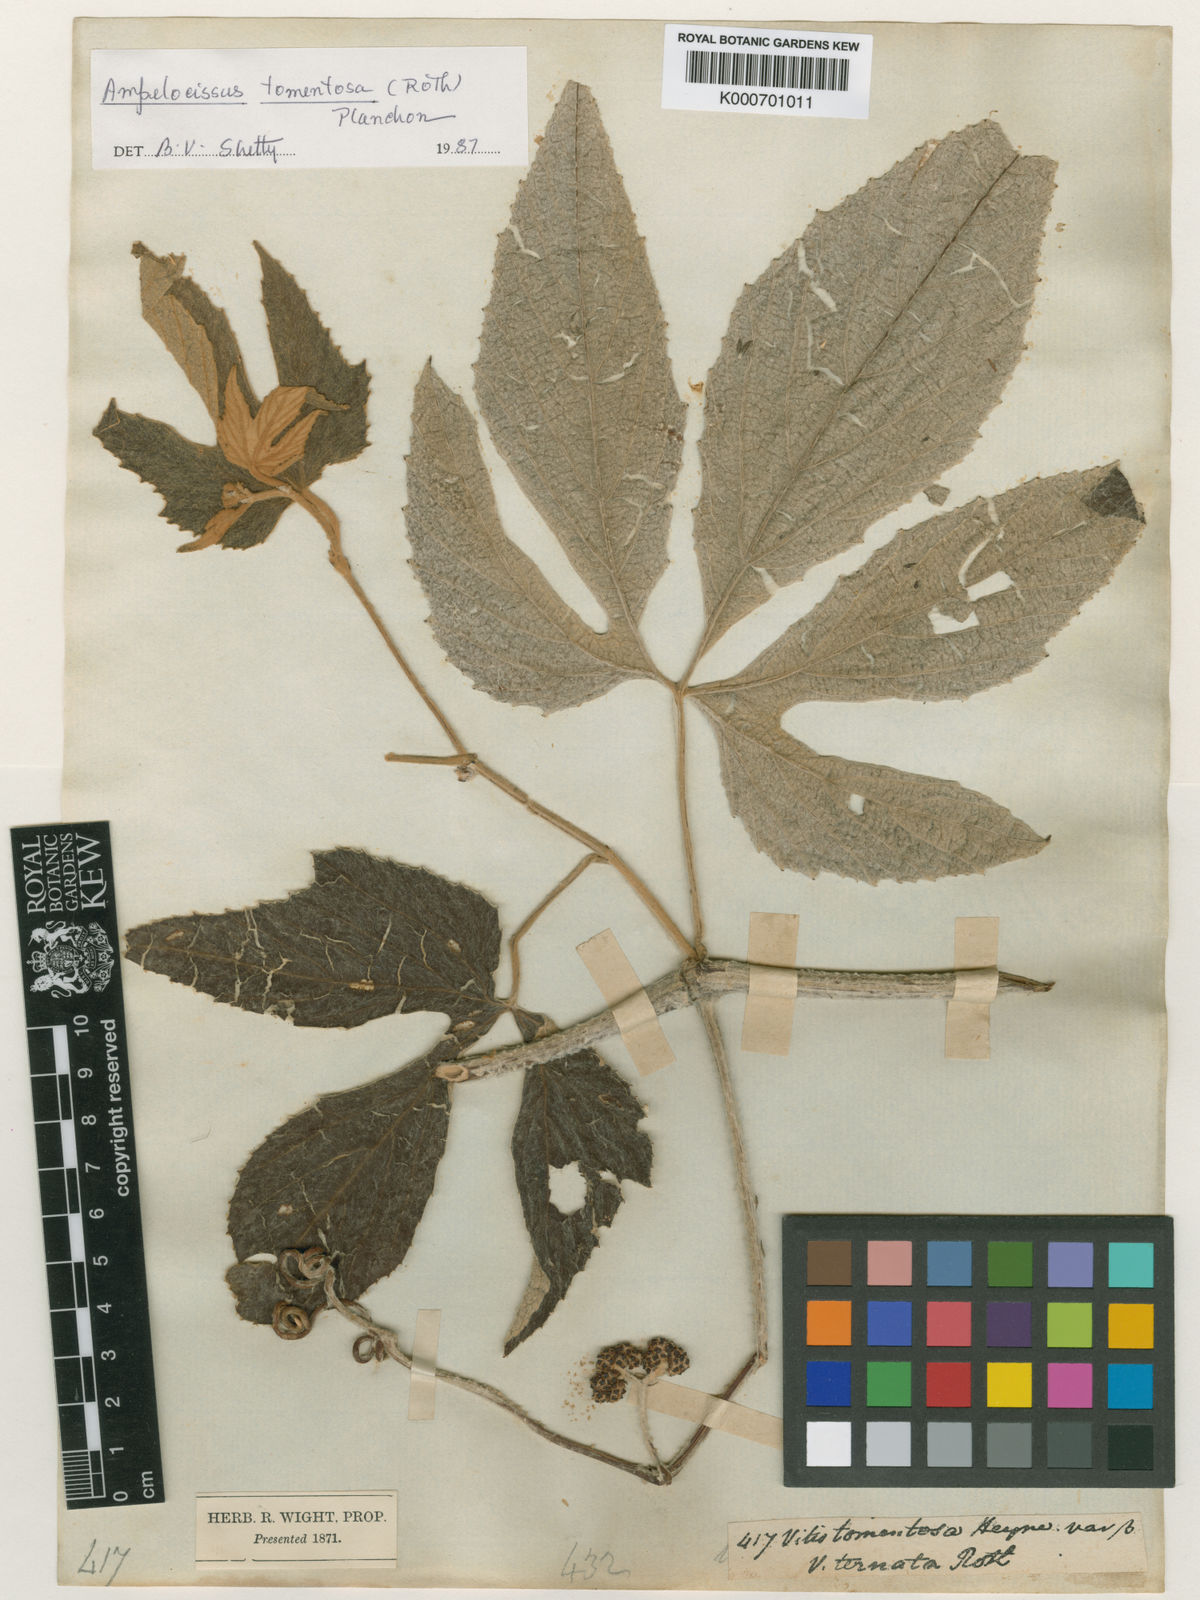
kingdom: Plantae
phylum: Tracheophyta
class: Magnoliopsida
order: Vitales
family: Vitaceae
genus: Ampelocissus
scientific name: Ampelocissus tomentosa
